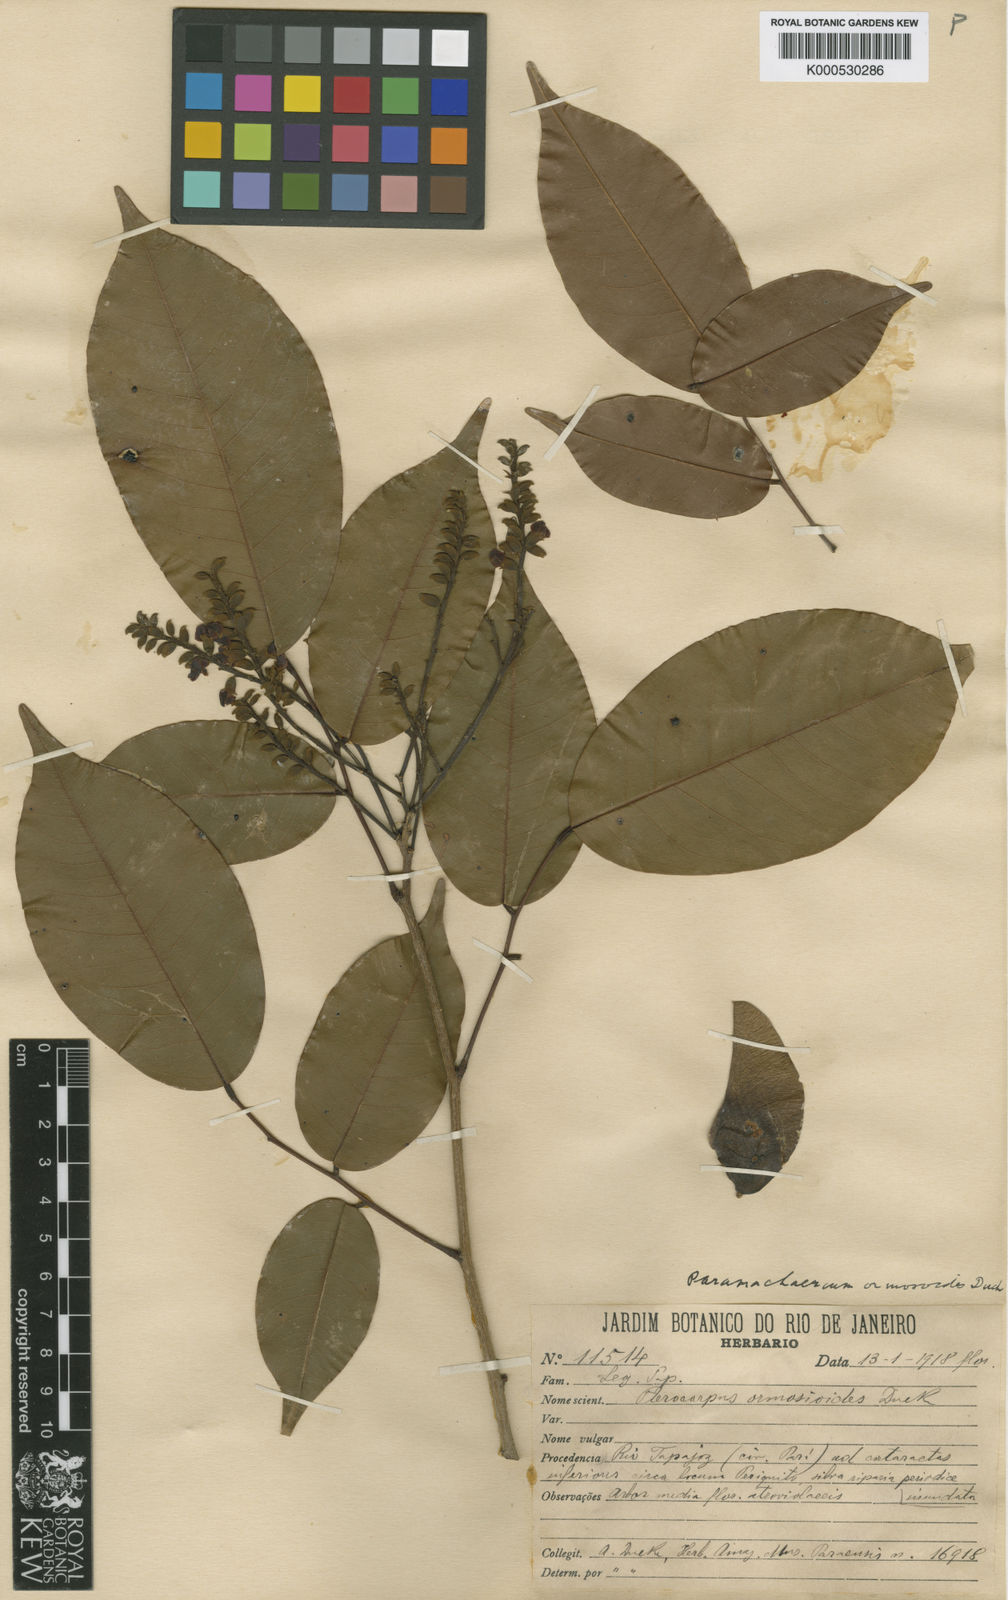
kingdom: Plantae
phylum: Tracheophyta
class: Magnoliopsida
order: Fabales
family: Fabaceae
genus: Paramachaerium
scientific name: Paramachaerium ormosioides
